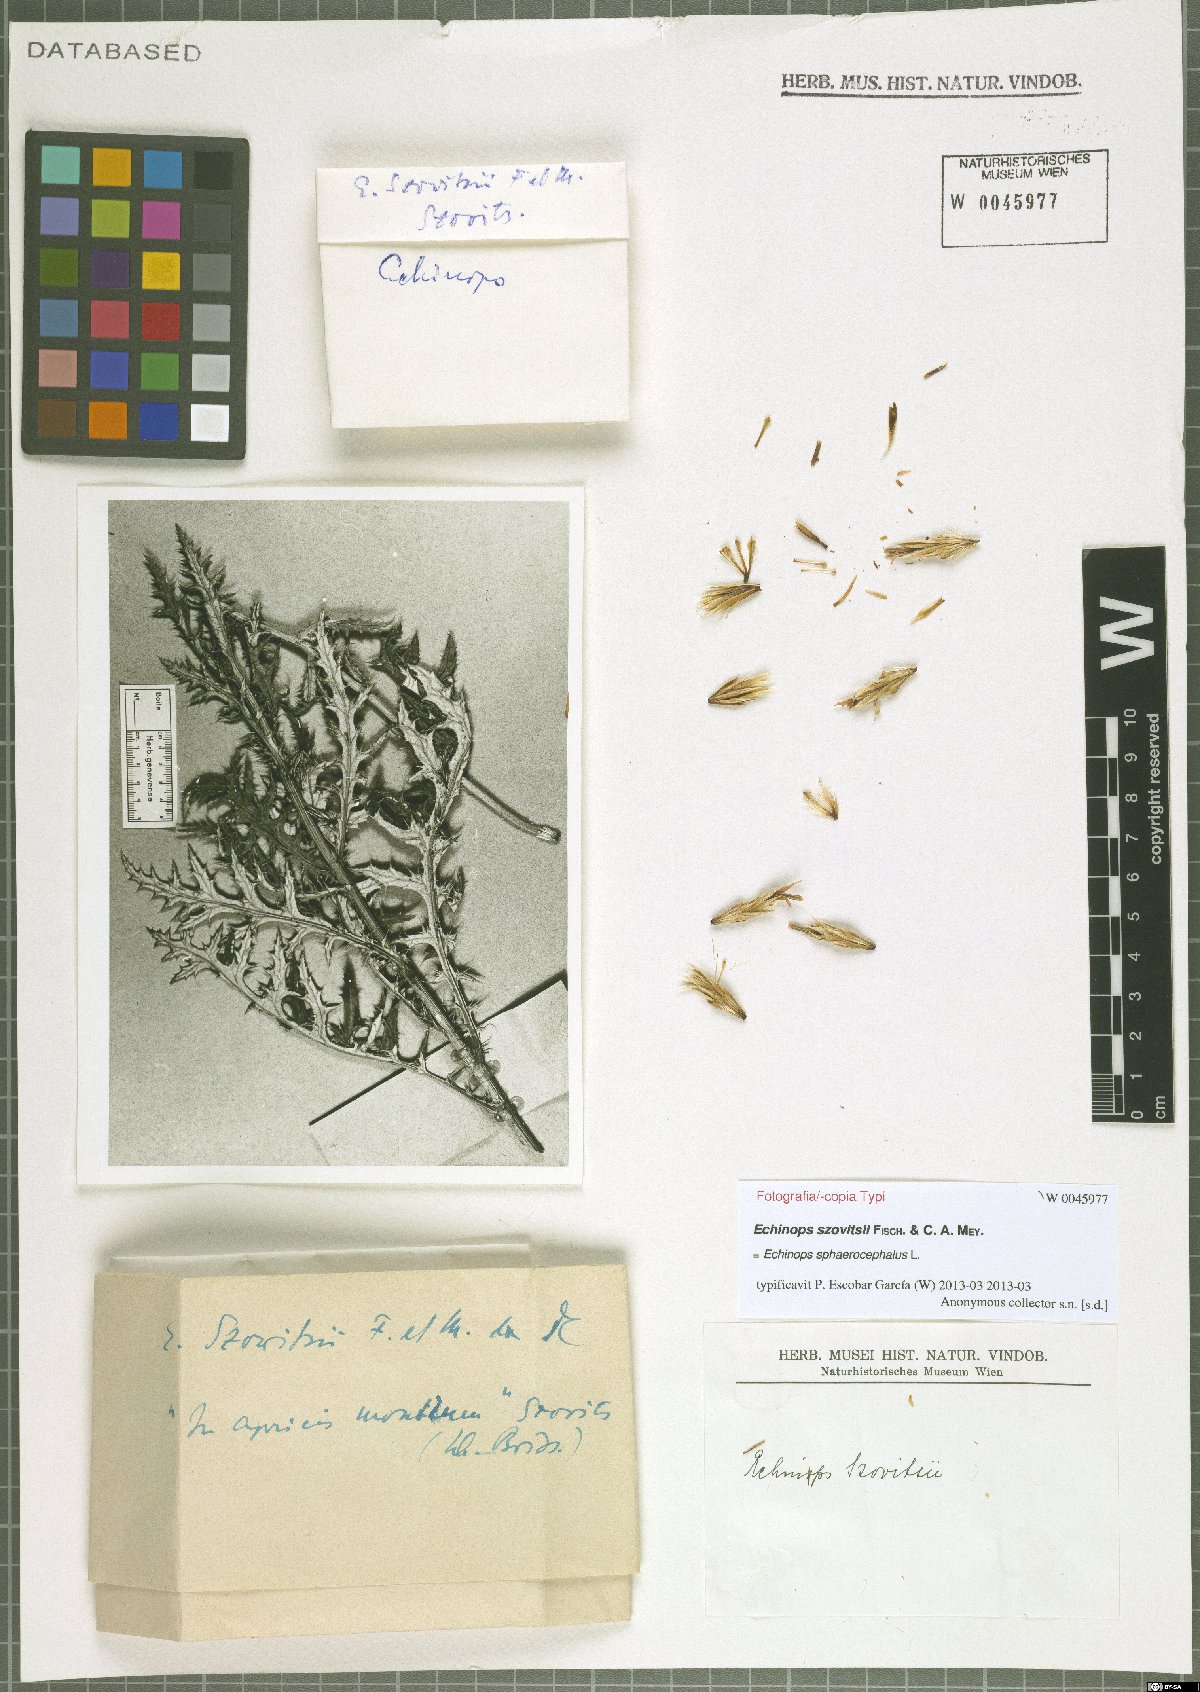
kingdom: Plantae
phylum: Tracheophyta
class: Magnoliopsida
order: Asterales
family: Asteraceae
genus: Echinops
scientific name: Echinops sphaerocephalus
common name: Glandular globe-thistle
